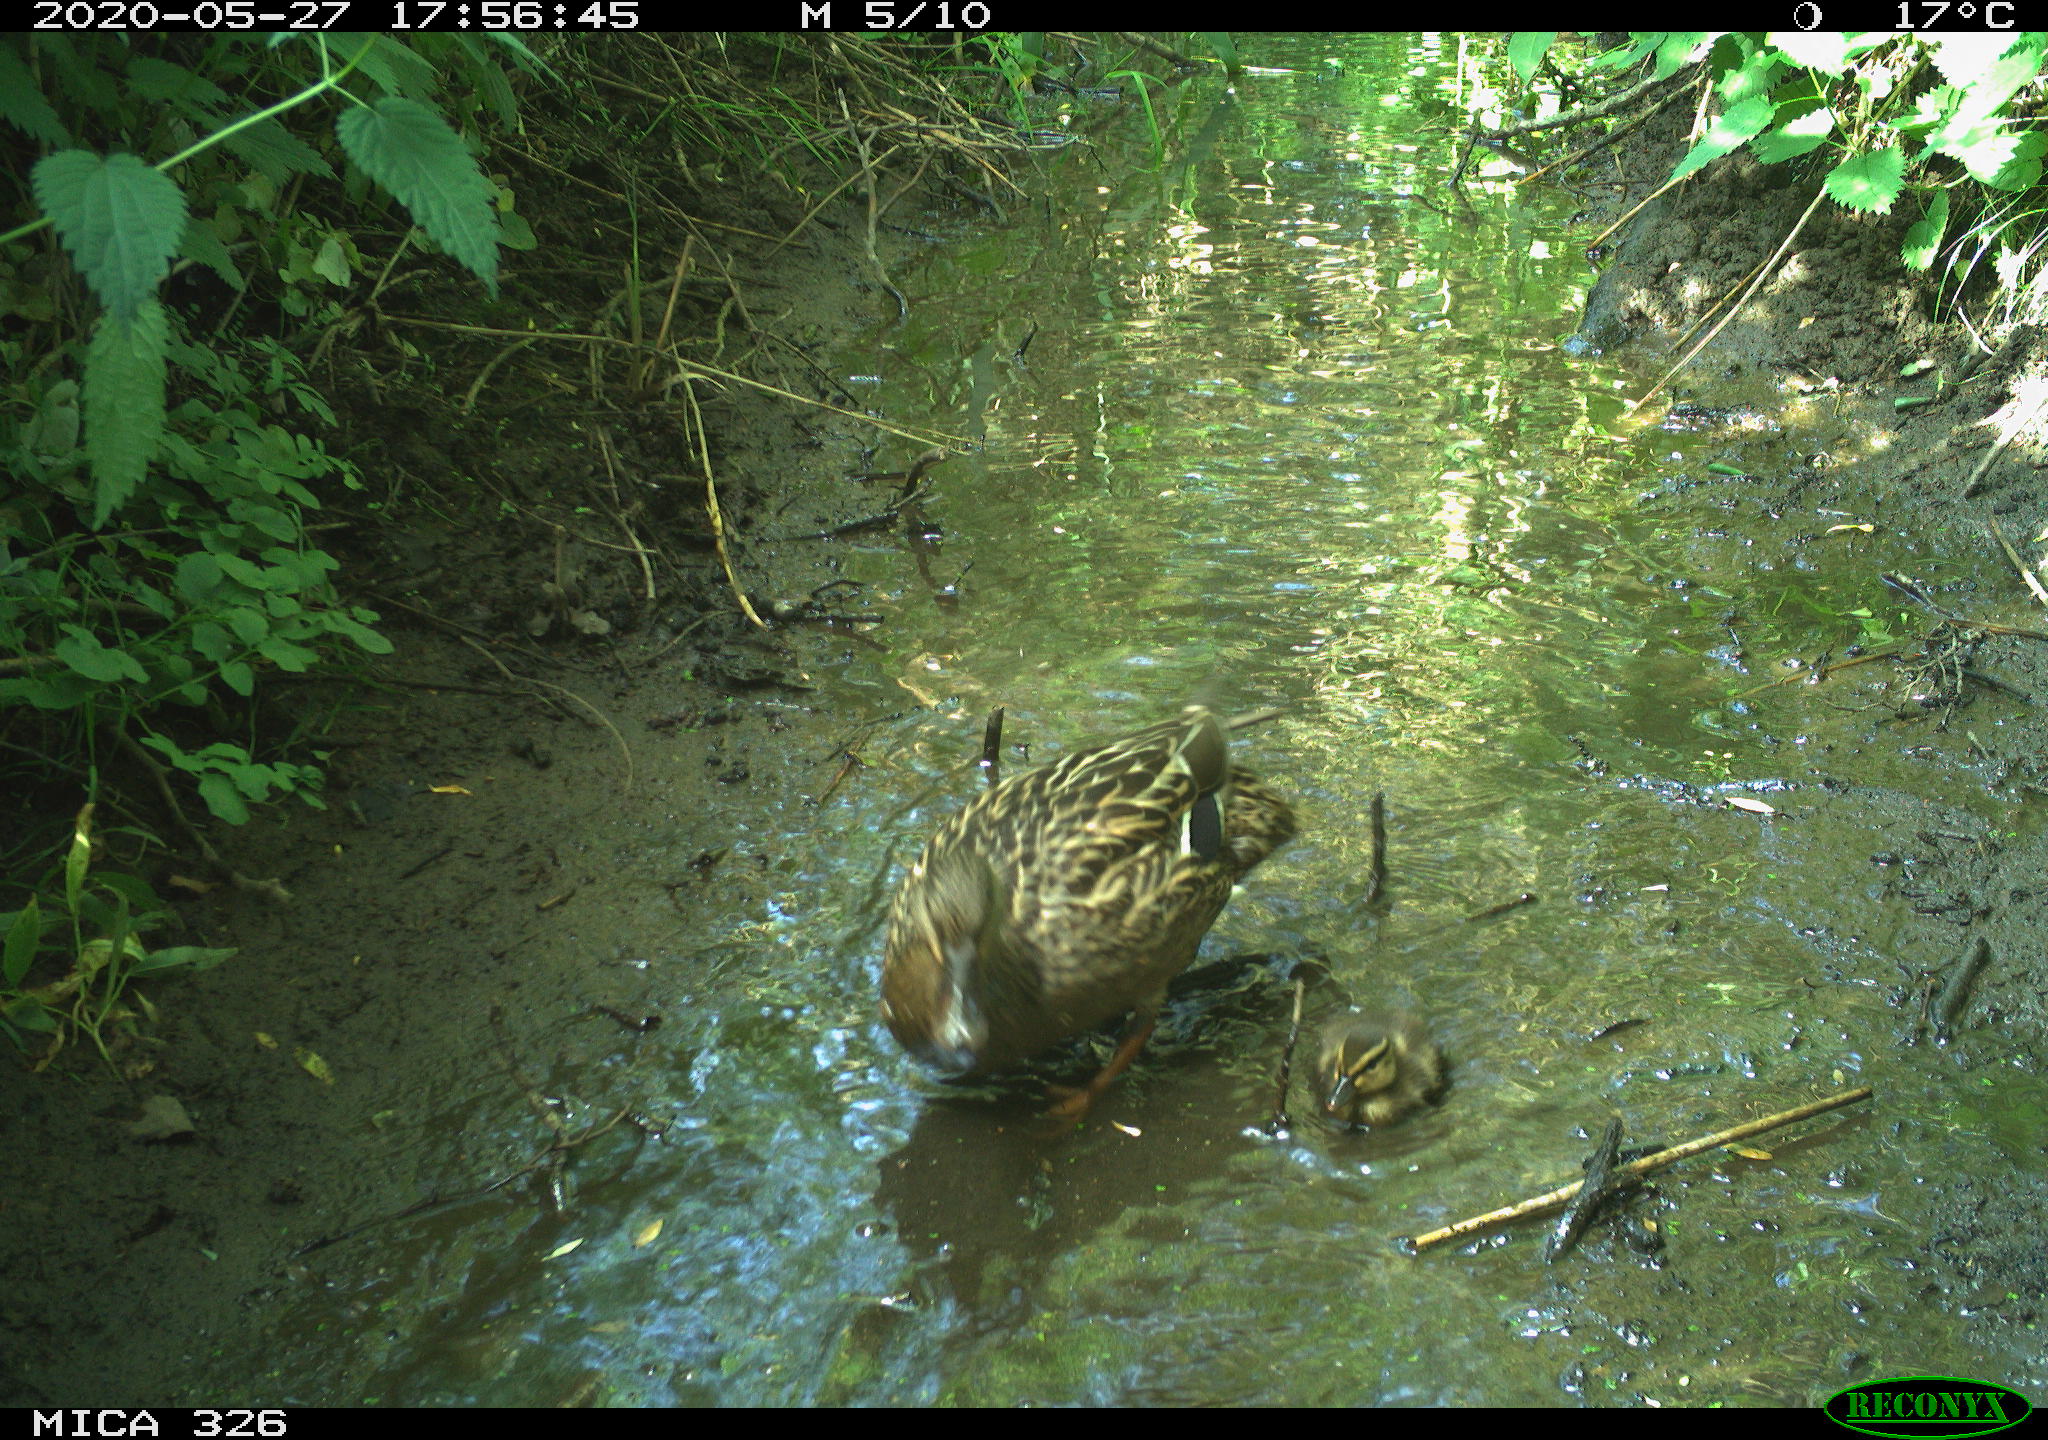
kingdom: Animalia
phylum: Chordata
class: Aves
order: Anseriformes
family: Anatidae
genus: Anas
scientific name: Anas platyrhynchos
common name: Mallard
